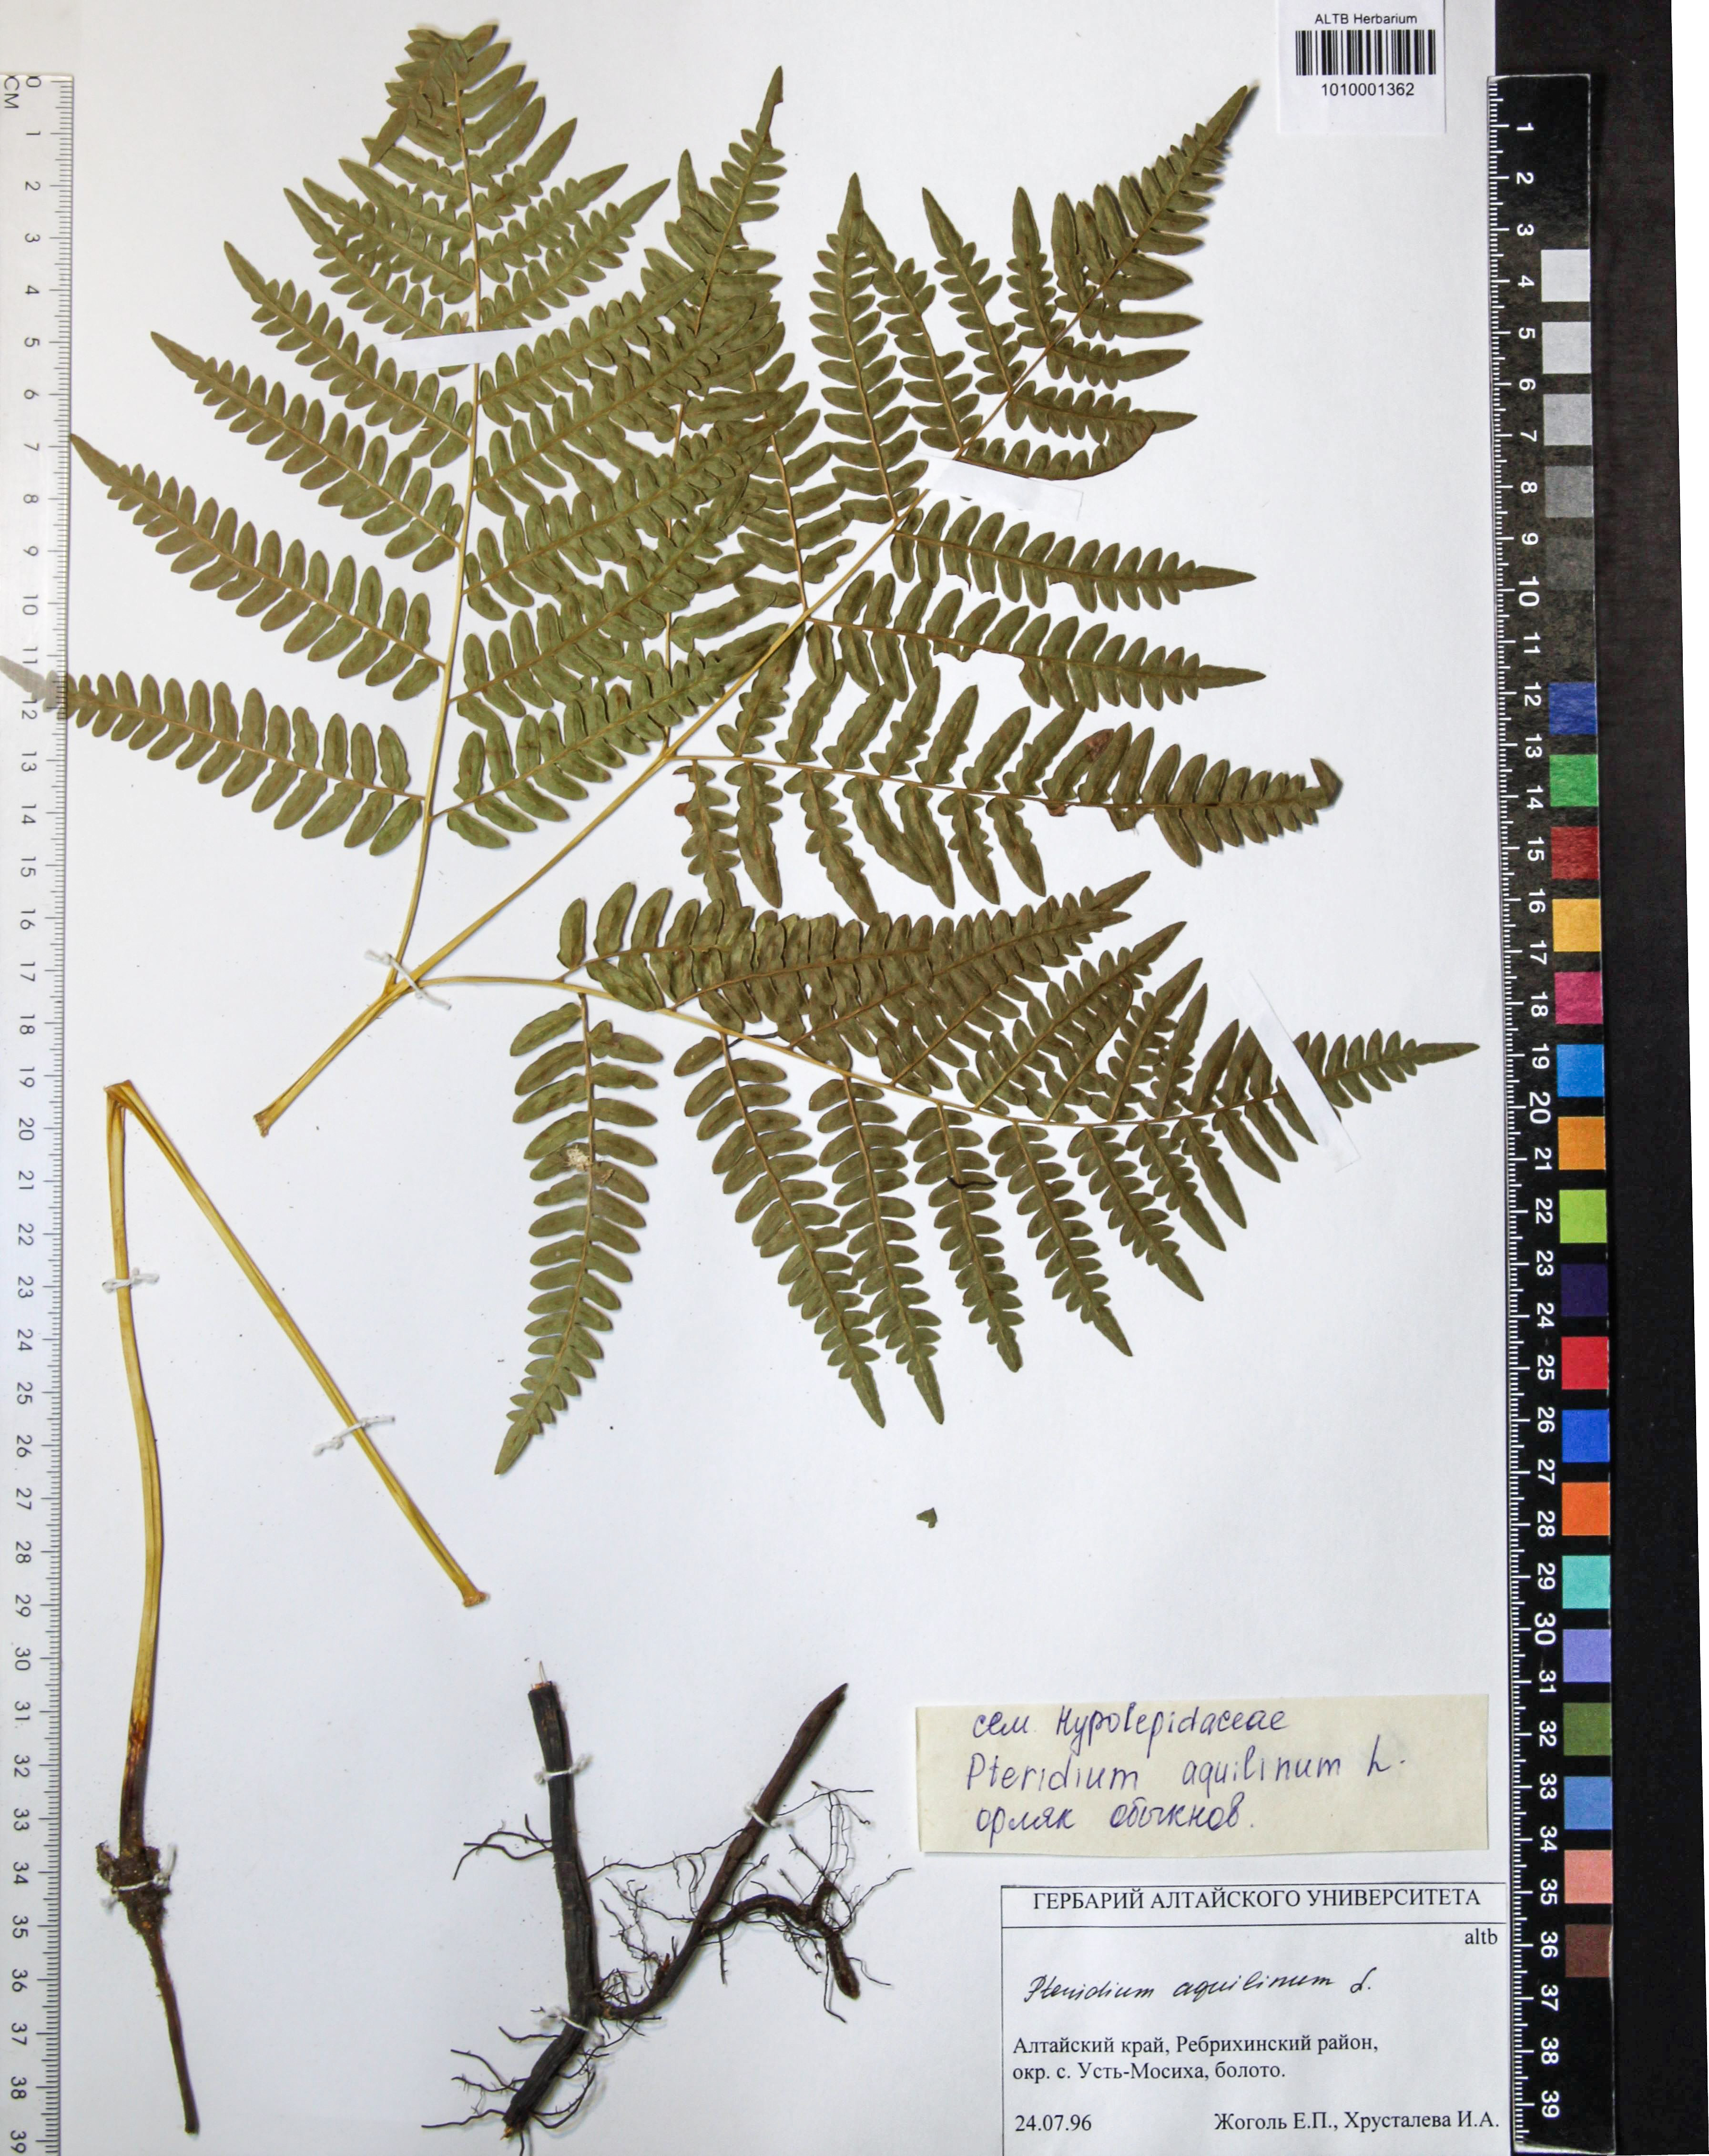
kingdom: Plantae
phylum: Tracheophyta
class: Polypodiopsida
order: Polypodiales
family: Dennstaedtiaceae
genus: Pteridium
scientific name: Pteridium aquilinum
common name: Bracken
